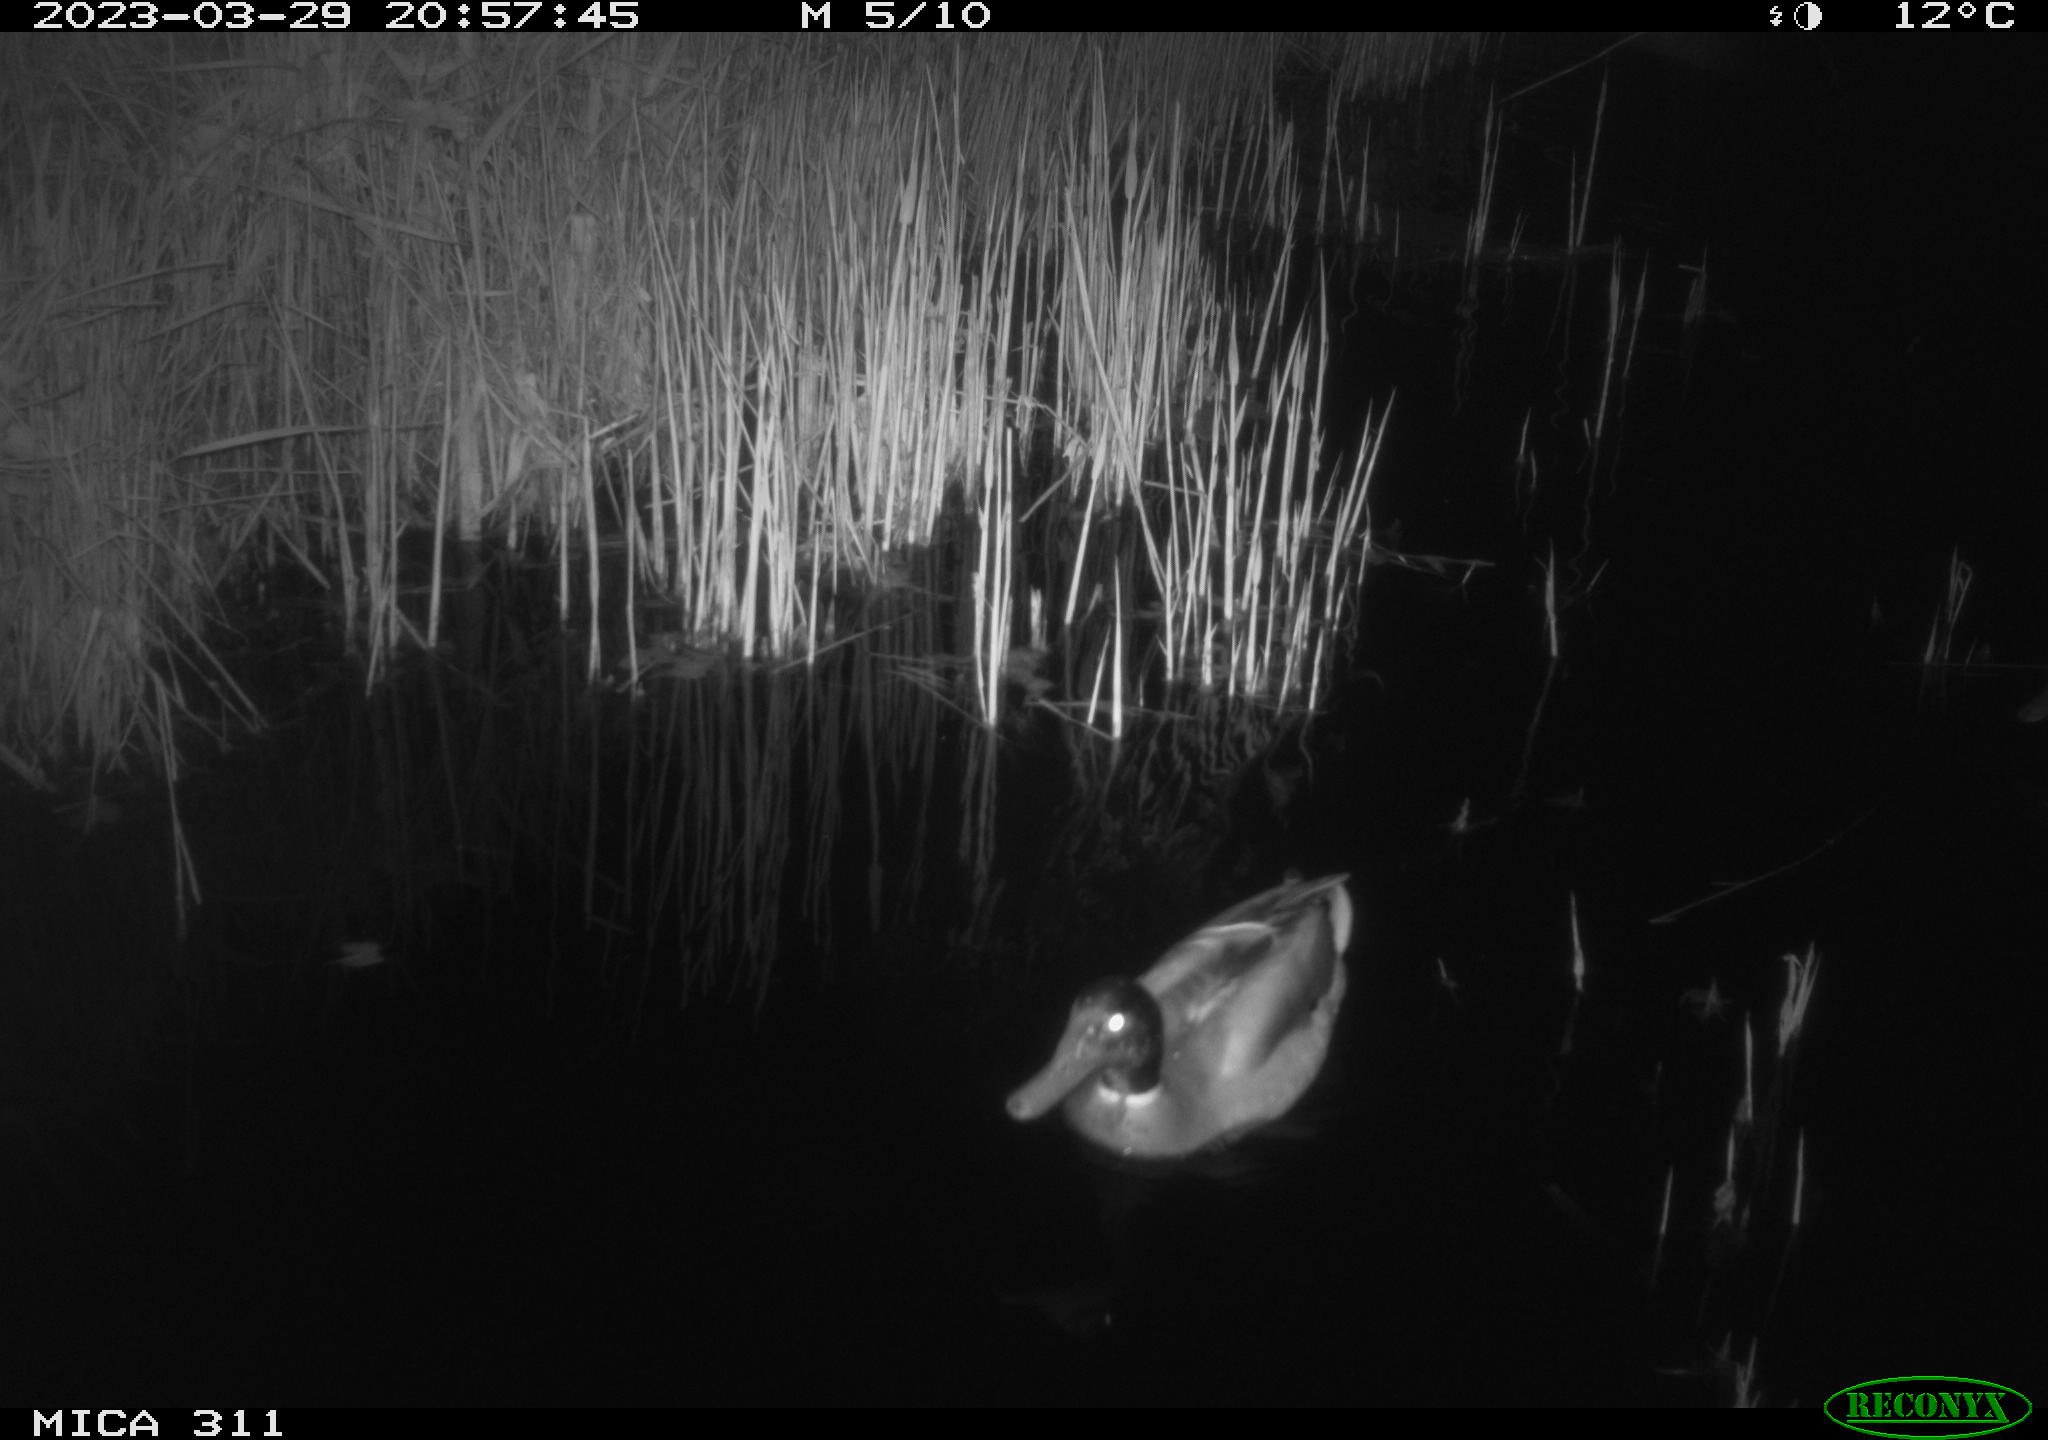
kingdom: Animalia
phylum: Chordata
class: Aves
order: Anseriformes
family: Anatidae
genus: Anas
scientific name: Anas
